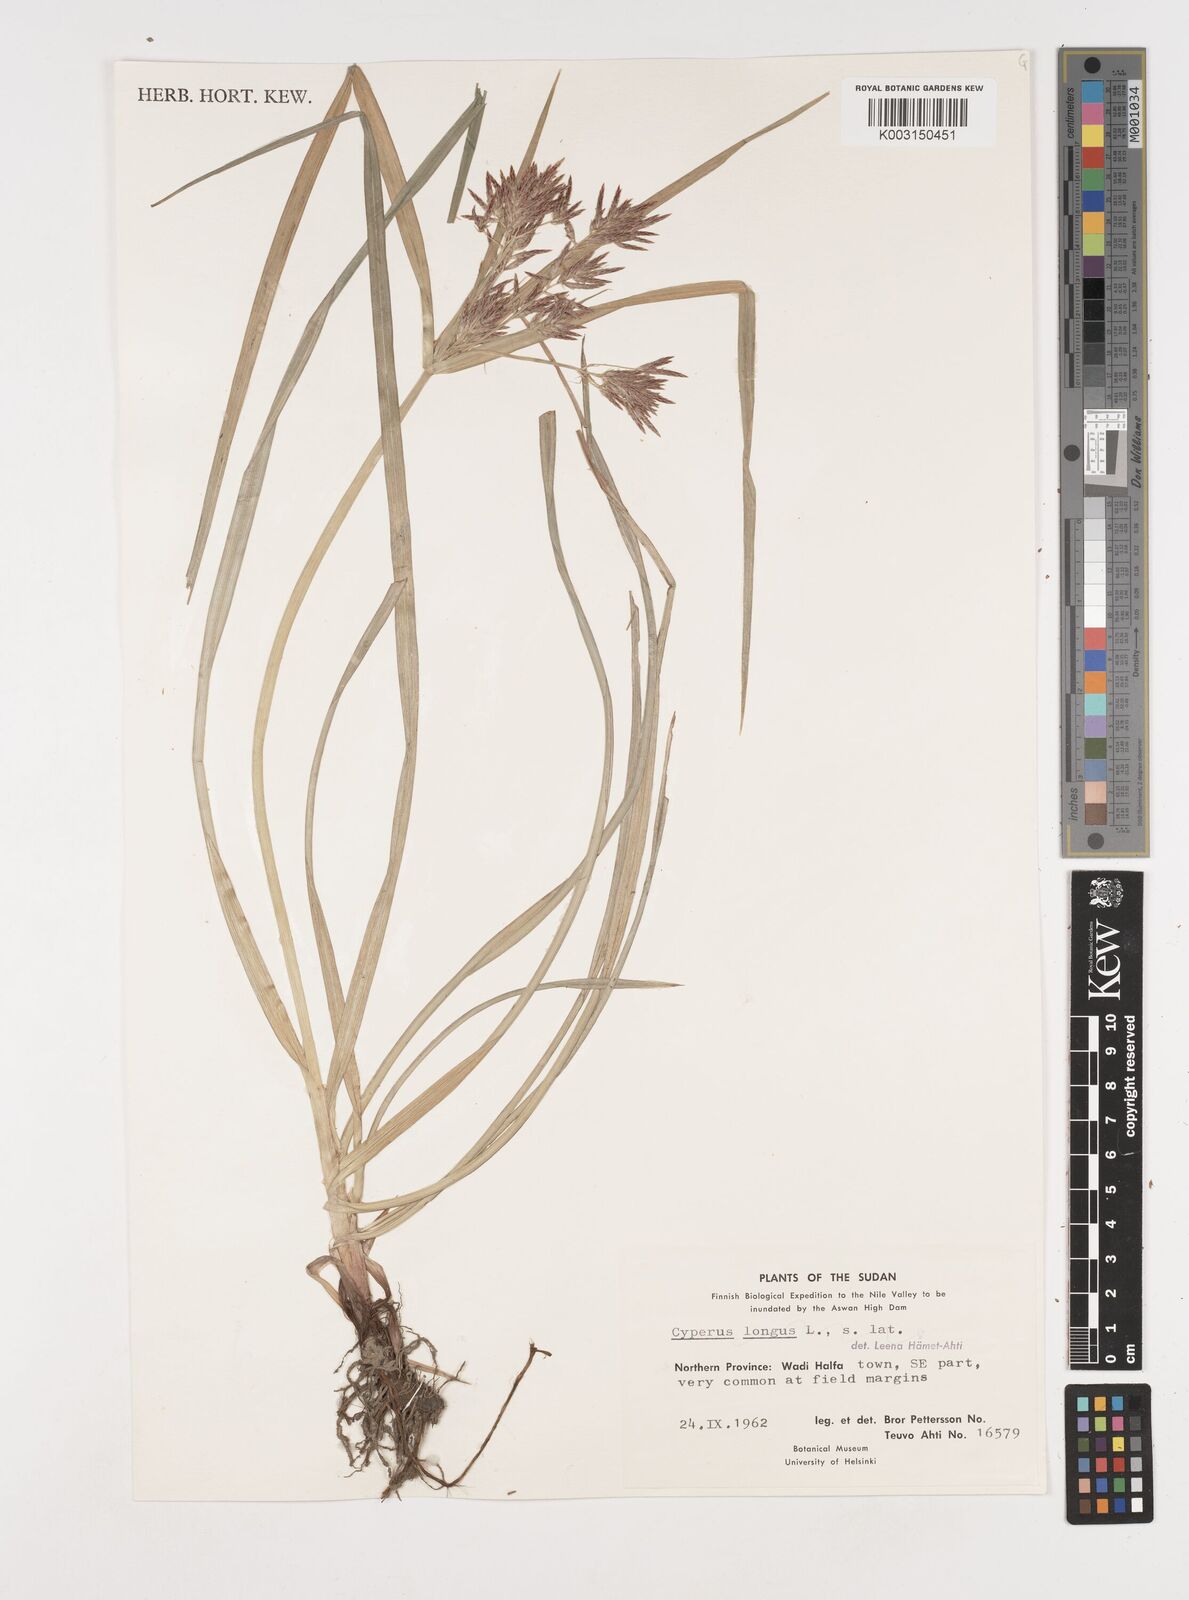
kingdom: Plantae
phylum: Tracheophyta
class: Liliopsida
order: Poales
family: Cyperaceae
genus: Cyperus
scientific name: Cyperus rotundus
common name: Nutgrass
